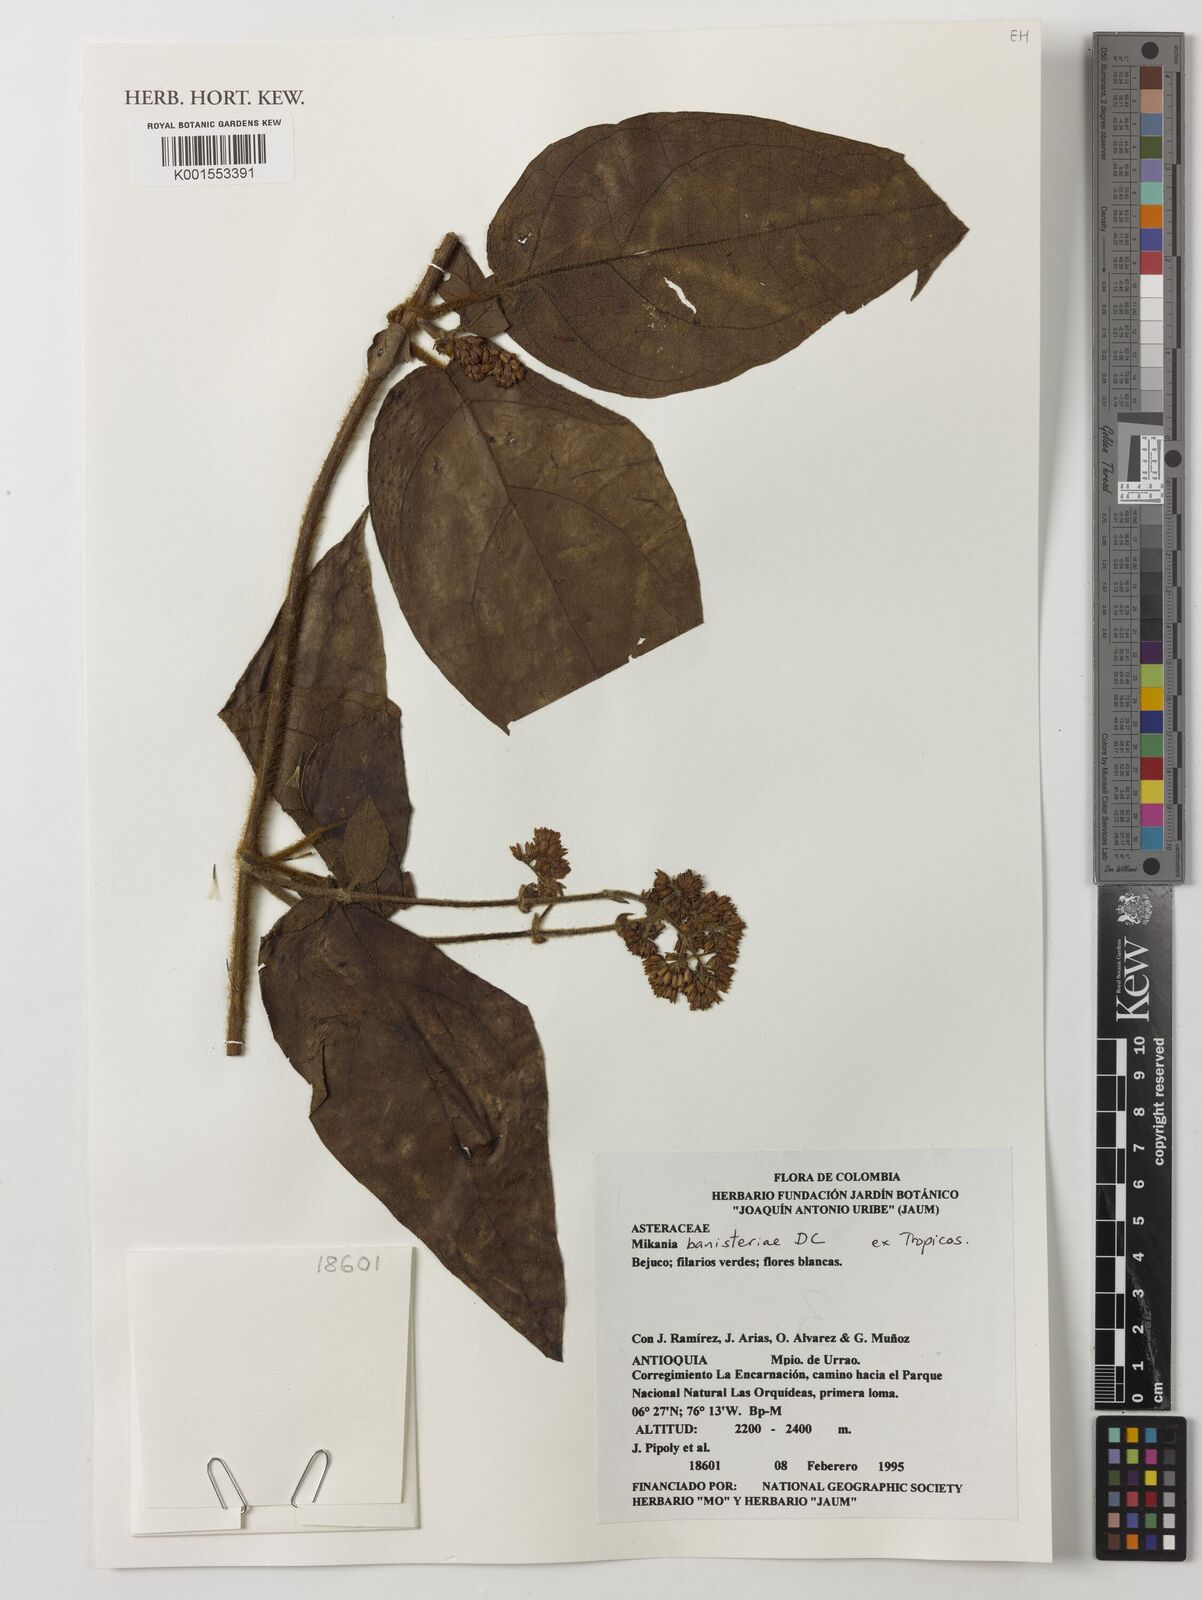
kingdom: Plantae
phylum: Tracheophyta
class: Magnoliopsida
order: Asterales
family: Asteraceae
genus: Mikania
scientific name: Mikania banisteriae
